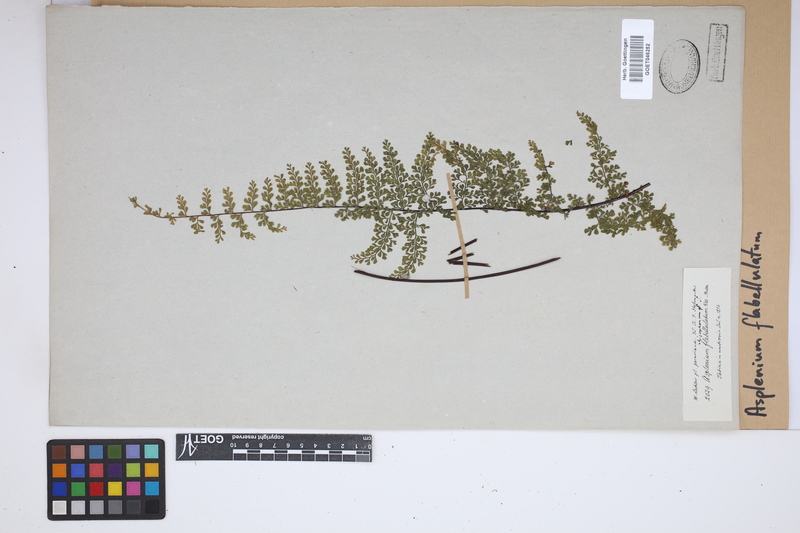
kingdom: Plantae
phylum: Tracheophyta
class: Polypodiopsida
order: Polypodiales
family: Aspleniaceae
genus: Asplenium
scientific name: Asplenium flabellulatum
